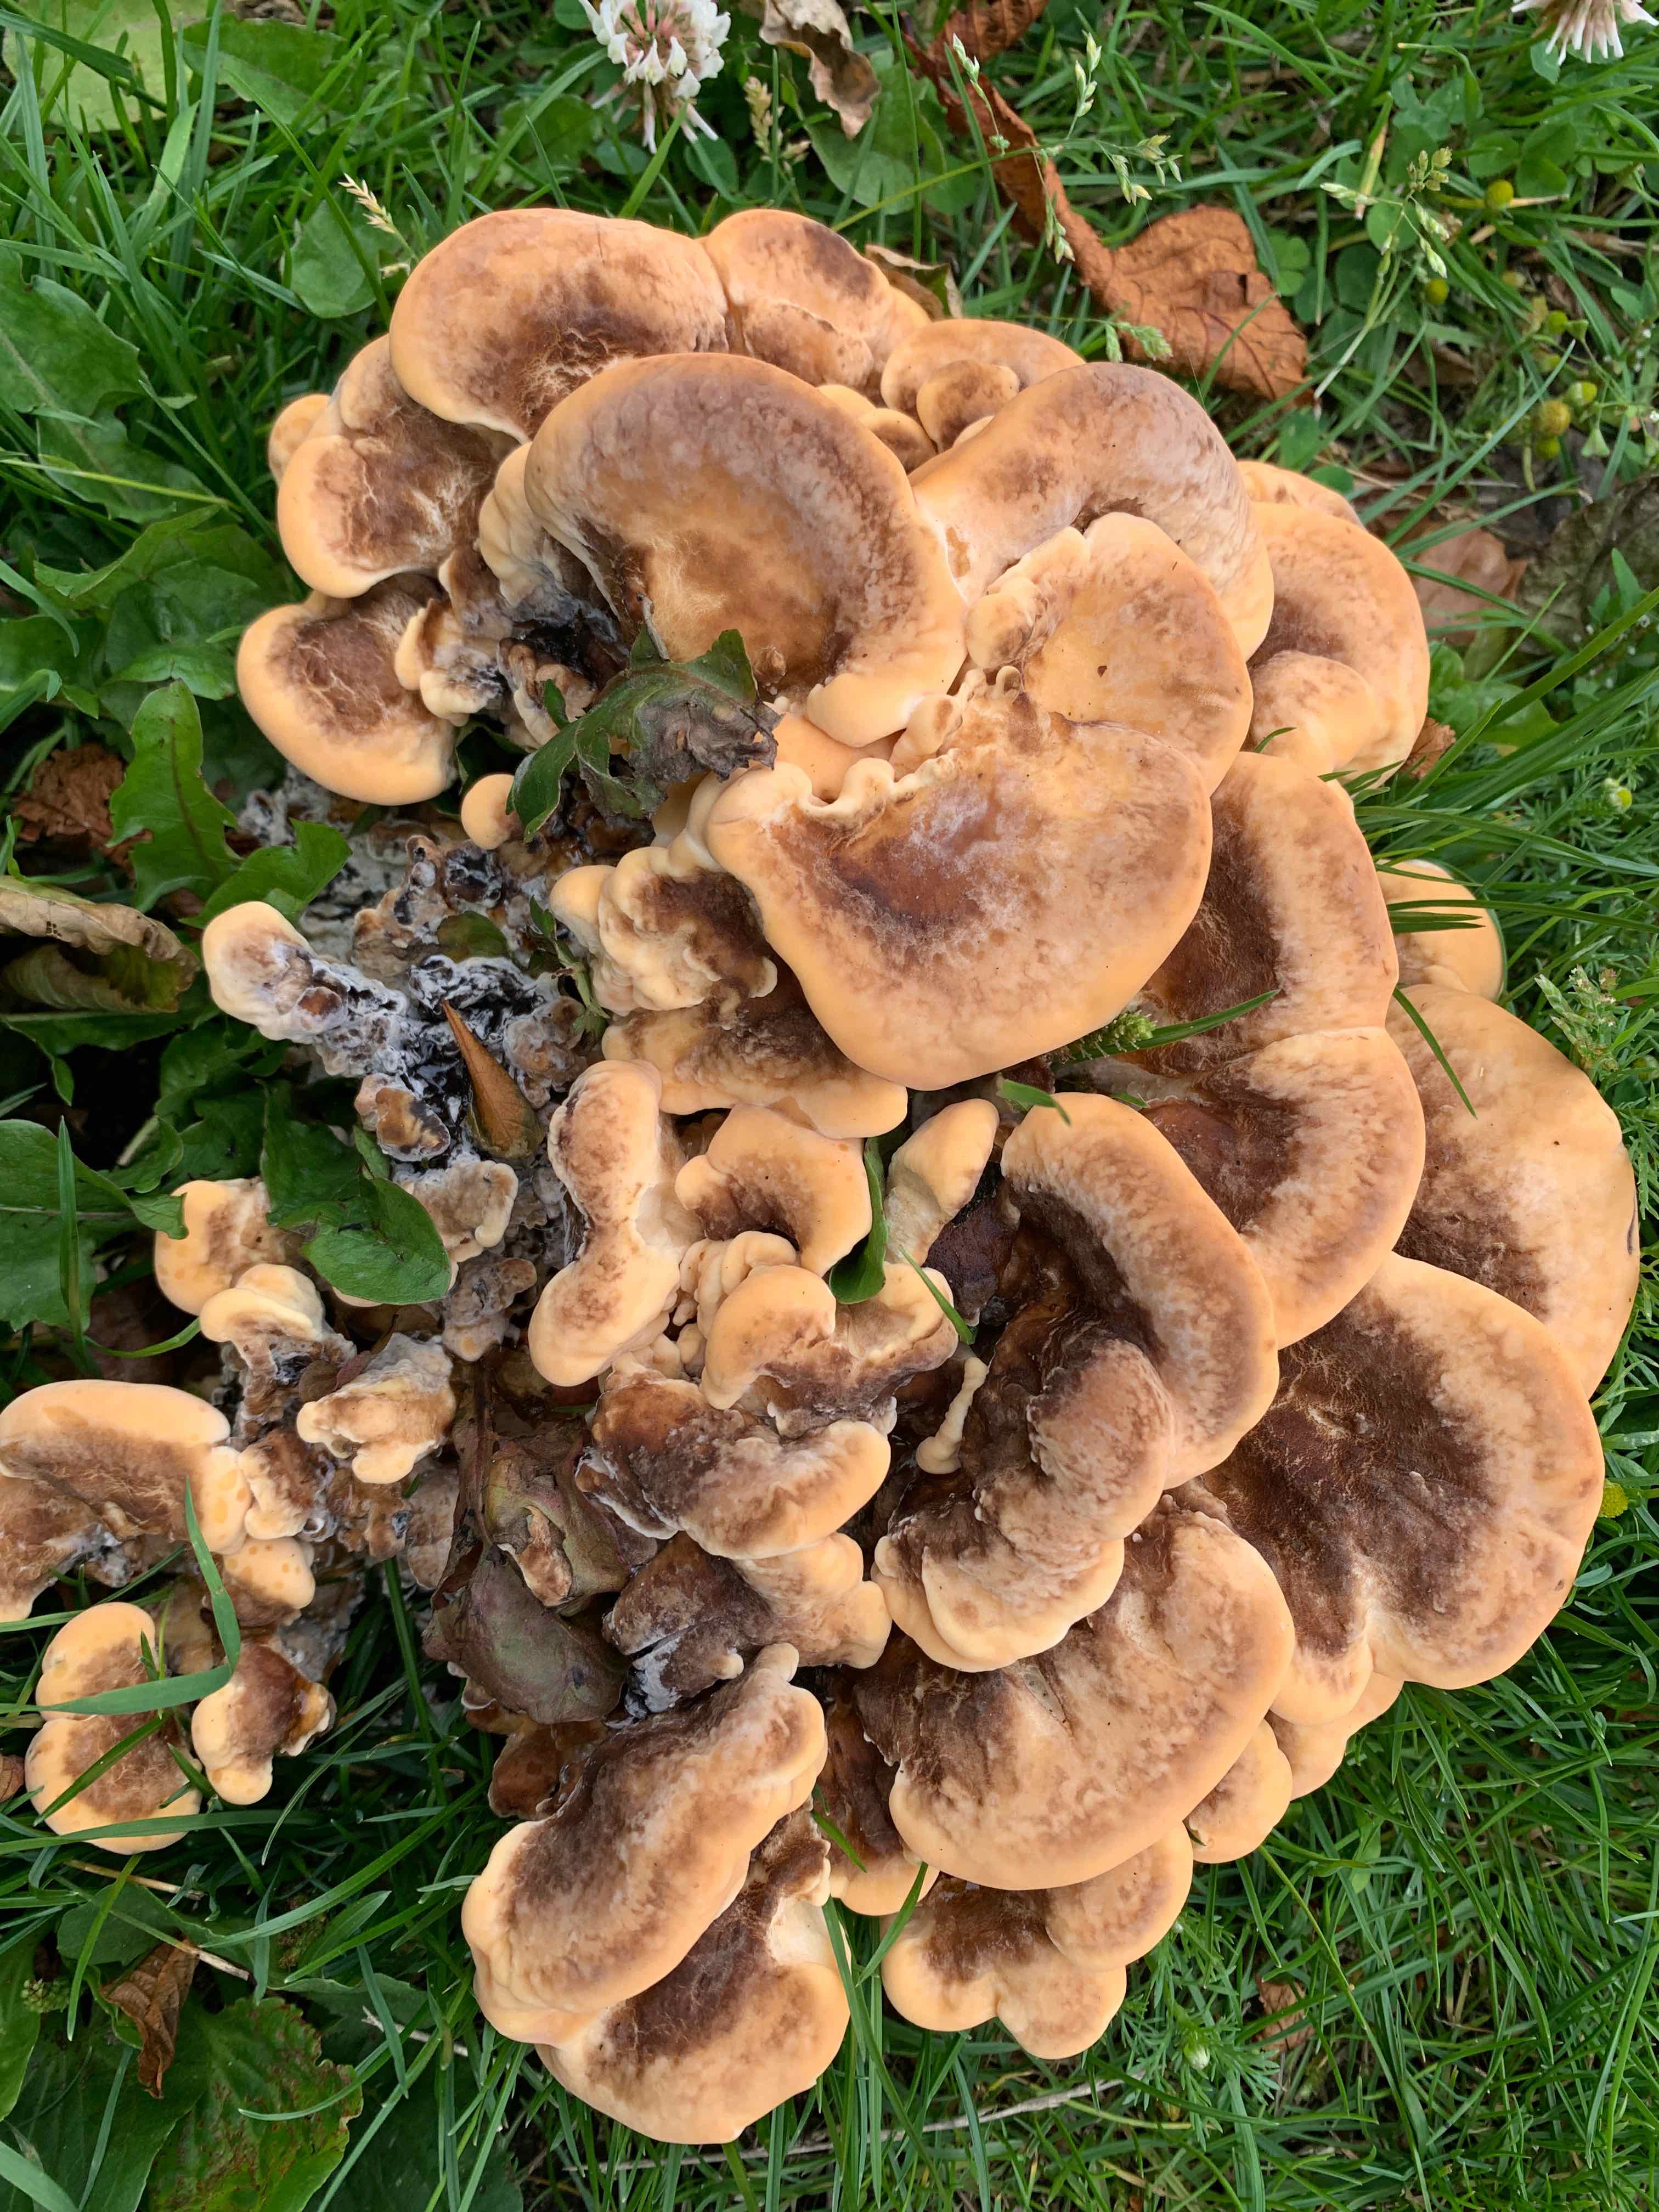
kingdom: Fungi
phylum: Basidiomycota
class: Agaricomycetes
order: Polyporales
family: Meripilaceae
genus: Meripilus
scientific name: Meripilus giganteus
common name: kæmpeporesvamp
